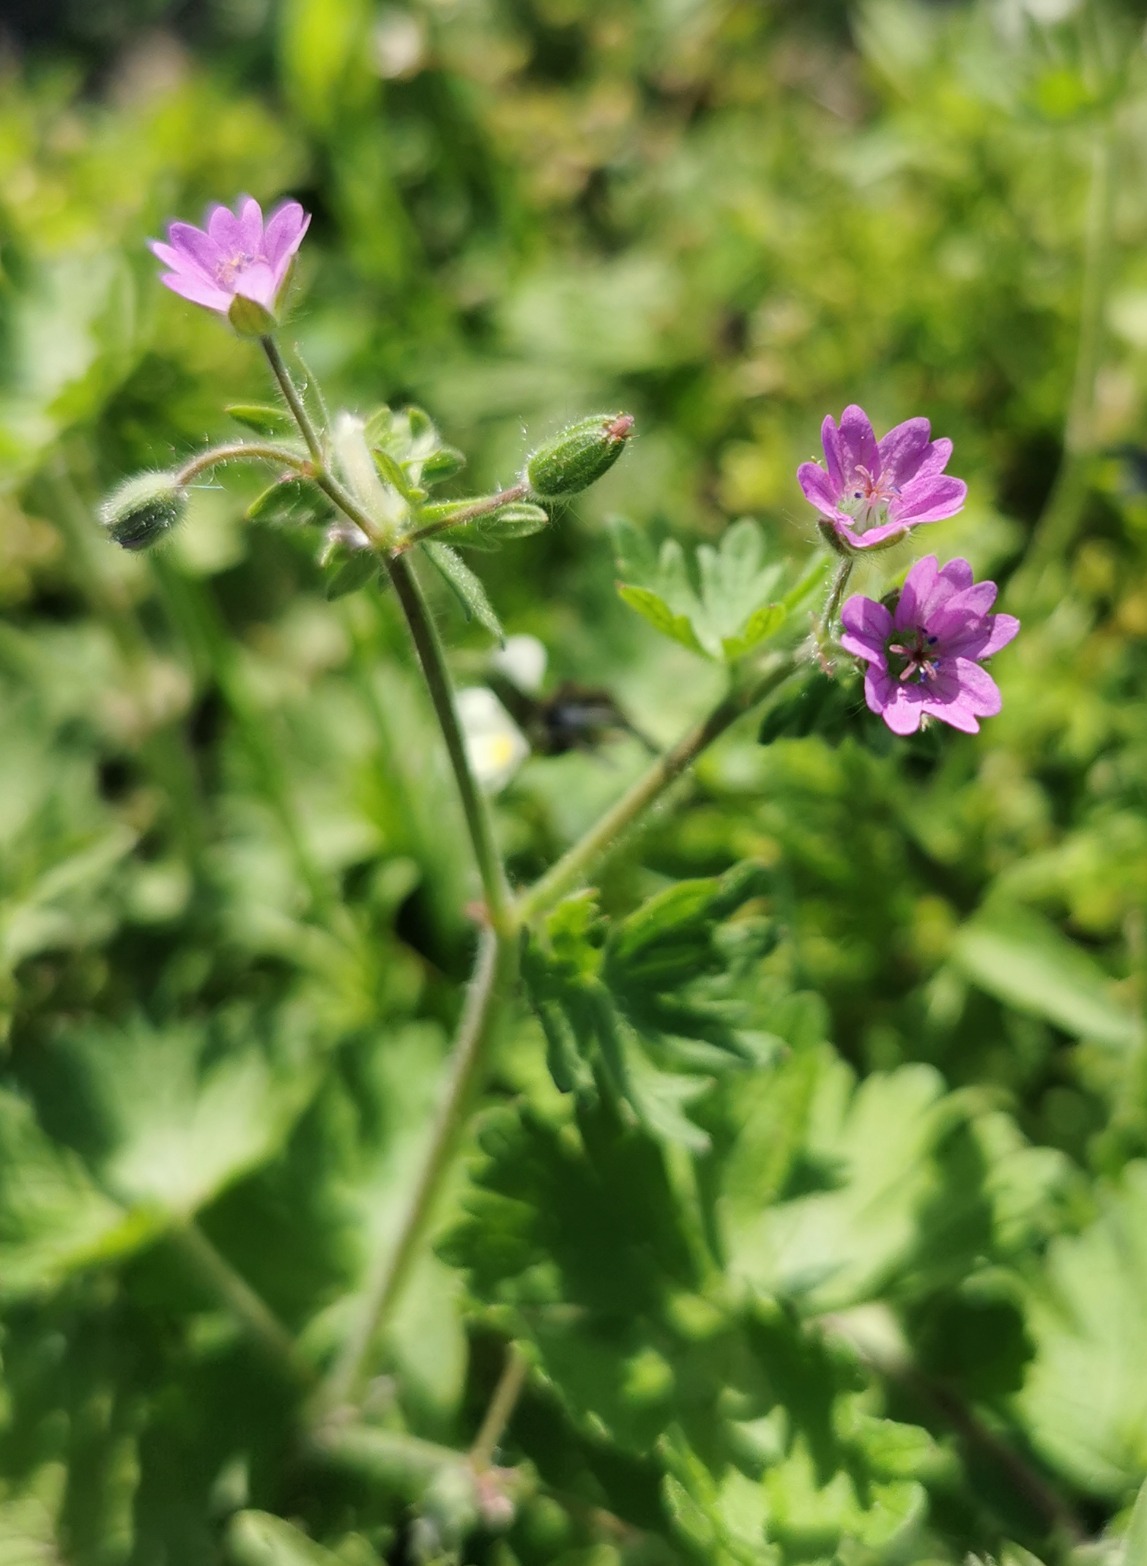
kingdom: Plantae
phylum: Tracheophyta
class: Magnoliopsida
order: Geraniales
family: Geraniaceae
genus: Geranium
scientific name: Geranium molle
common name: Blød storkenæb
